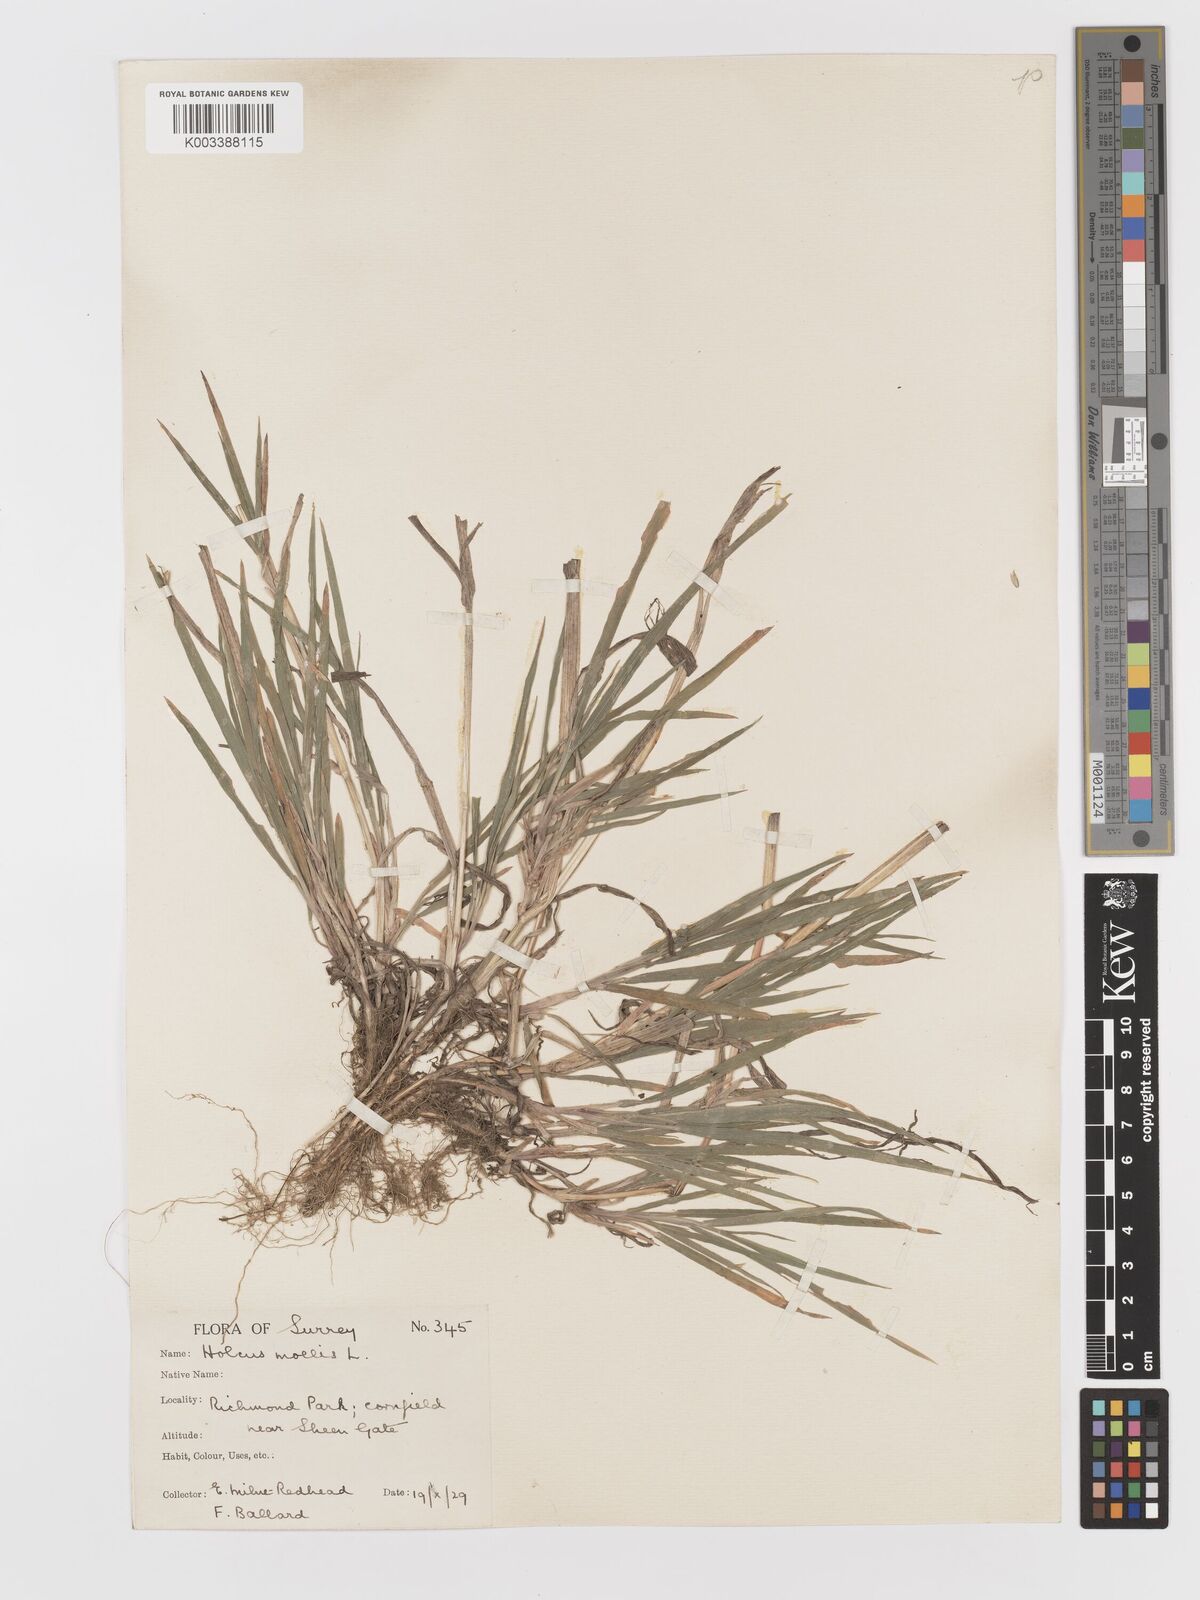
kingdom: Plantae
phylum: Tracheophyta
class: Liliopsida
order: Poales
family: Poaceae
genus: Holcus
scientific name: Holcus mollis
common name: Creeping velvetgrass
